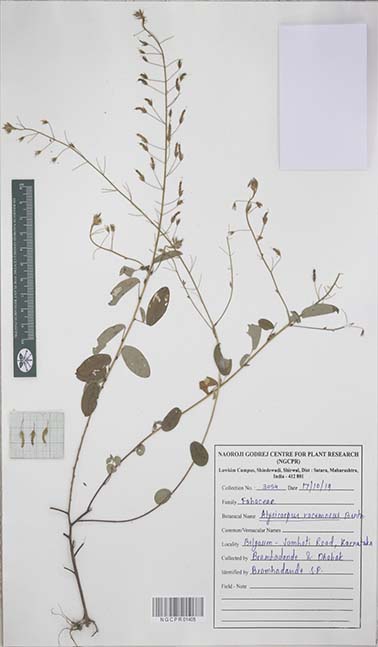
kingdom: Plantae
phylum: Tracheophyta
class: Magnoliopsida
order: Fabales
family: Fabaceae
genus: Alysicarpus
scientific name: Alysicarpus racemosus
